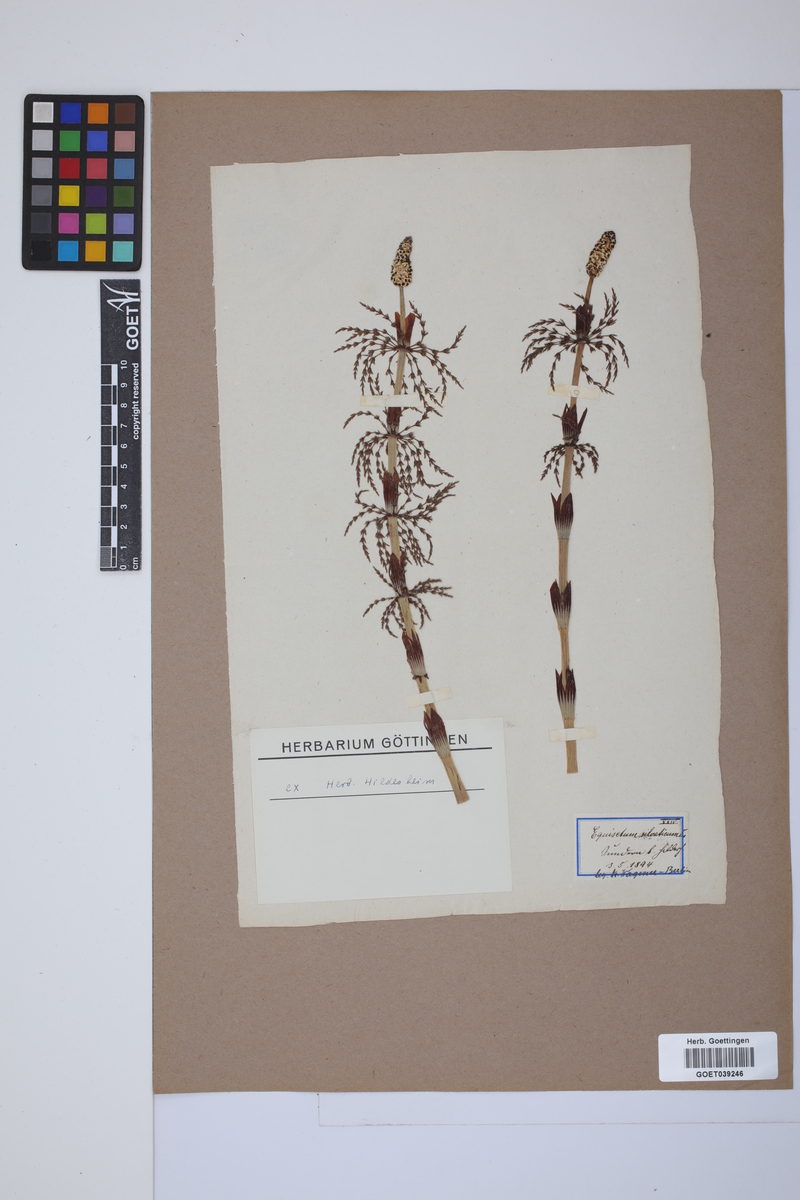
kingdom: Plantae
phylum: Tracheophyta
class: Polypodiopsida
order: Equisetales
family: Equisetaceae
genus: Equisetum
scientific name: Equisetum sylvaticum
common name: Wood horsetail
